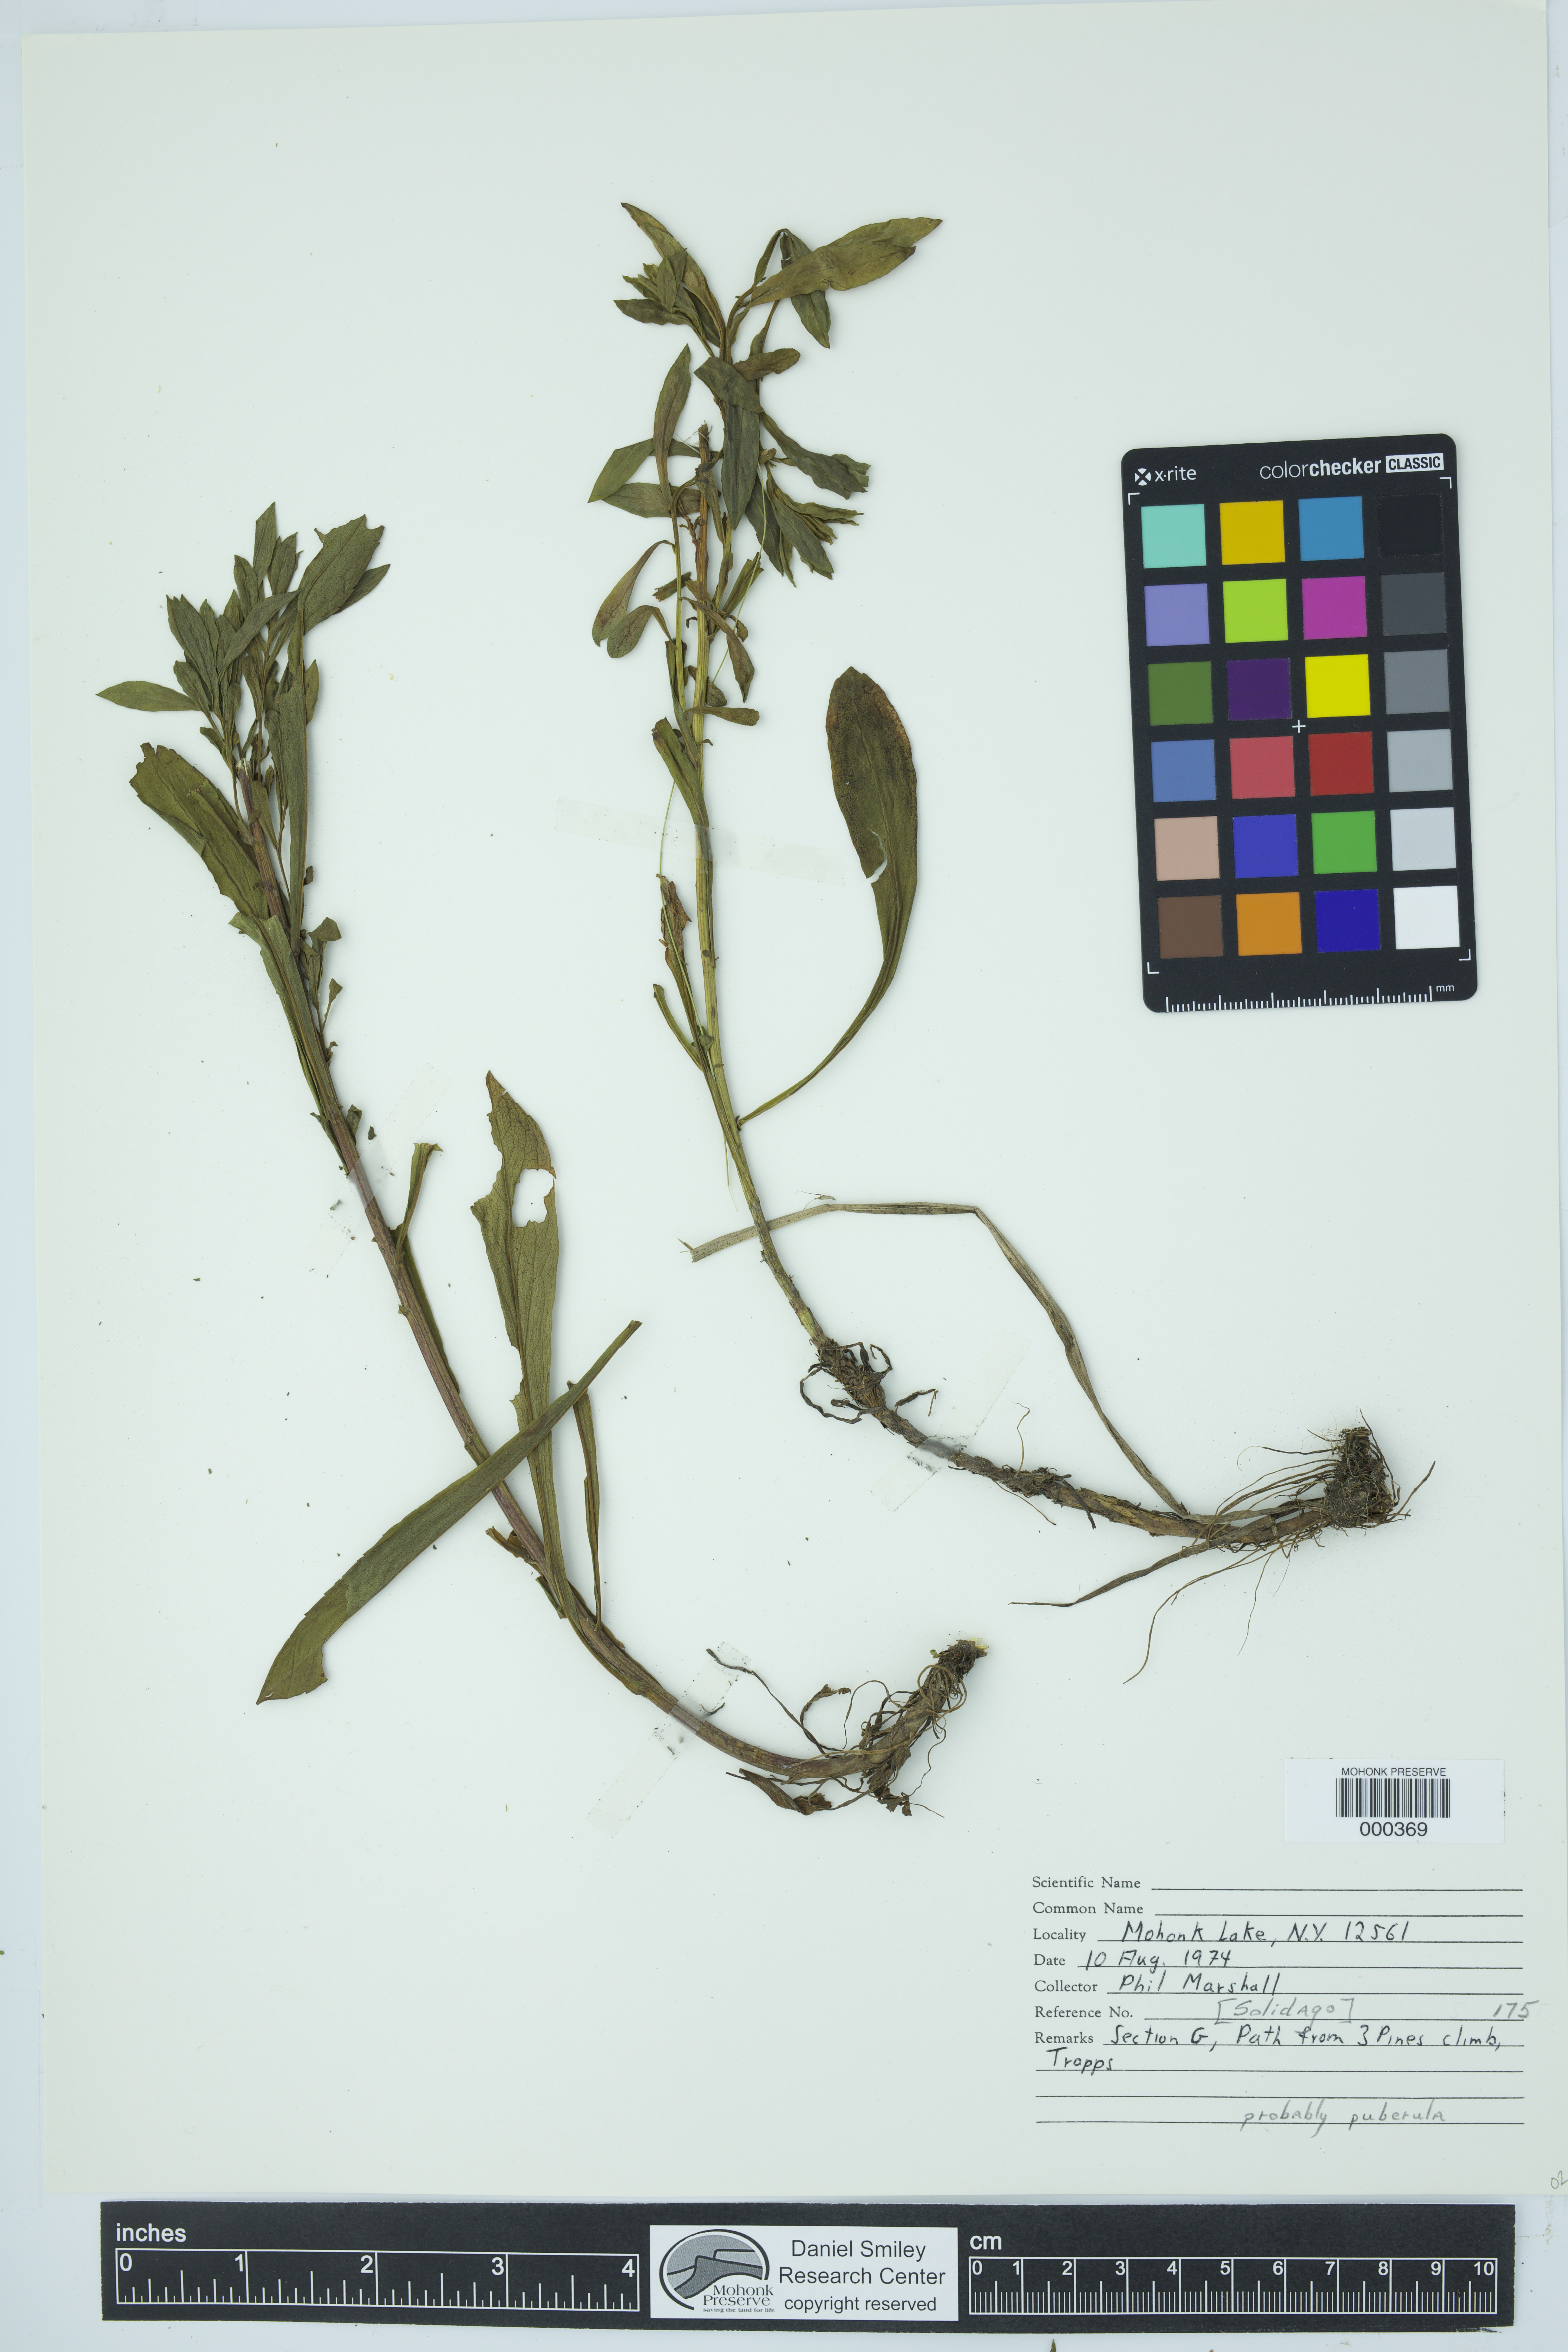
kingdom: Plantae
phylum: Tracheophyta
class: Magnoliopsida
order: Asterales
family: Asteraceae
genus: Solidago
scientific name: Solidago
